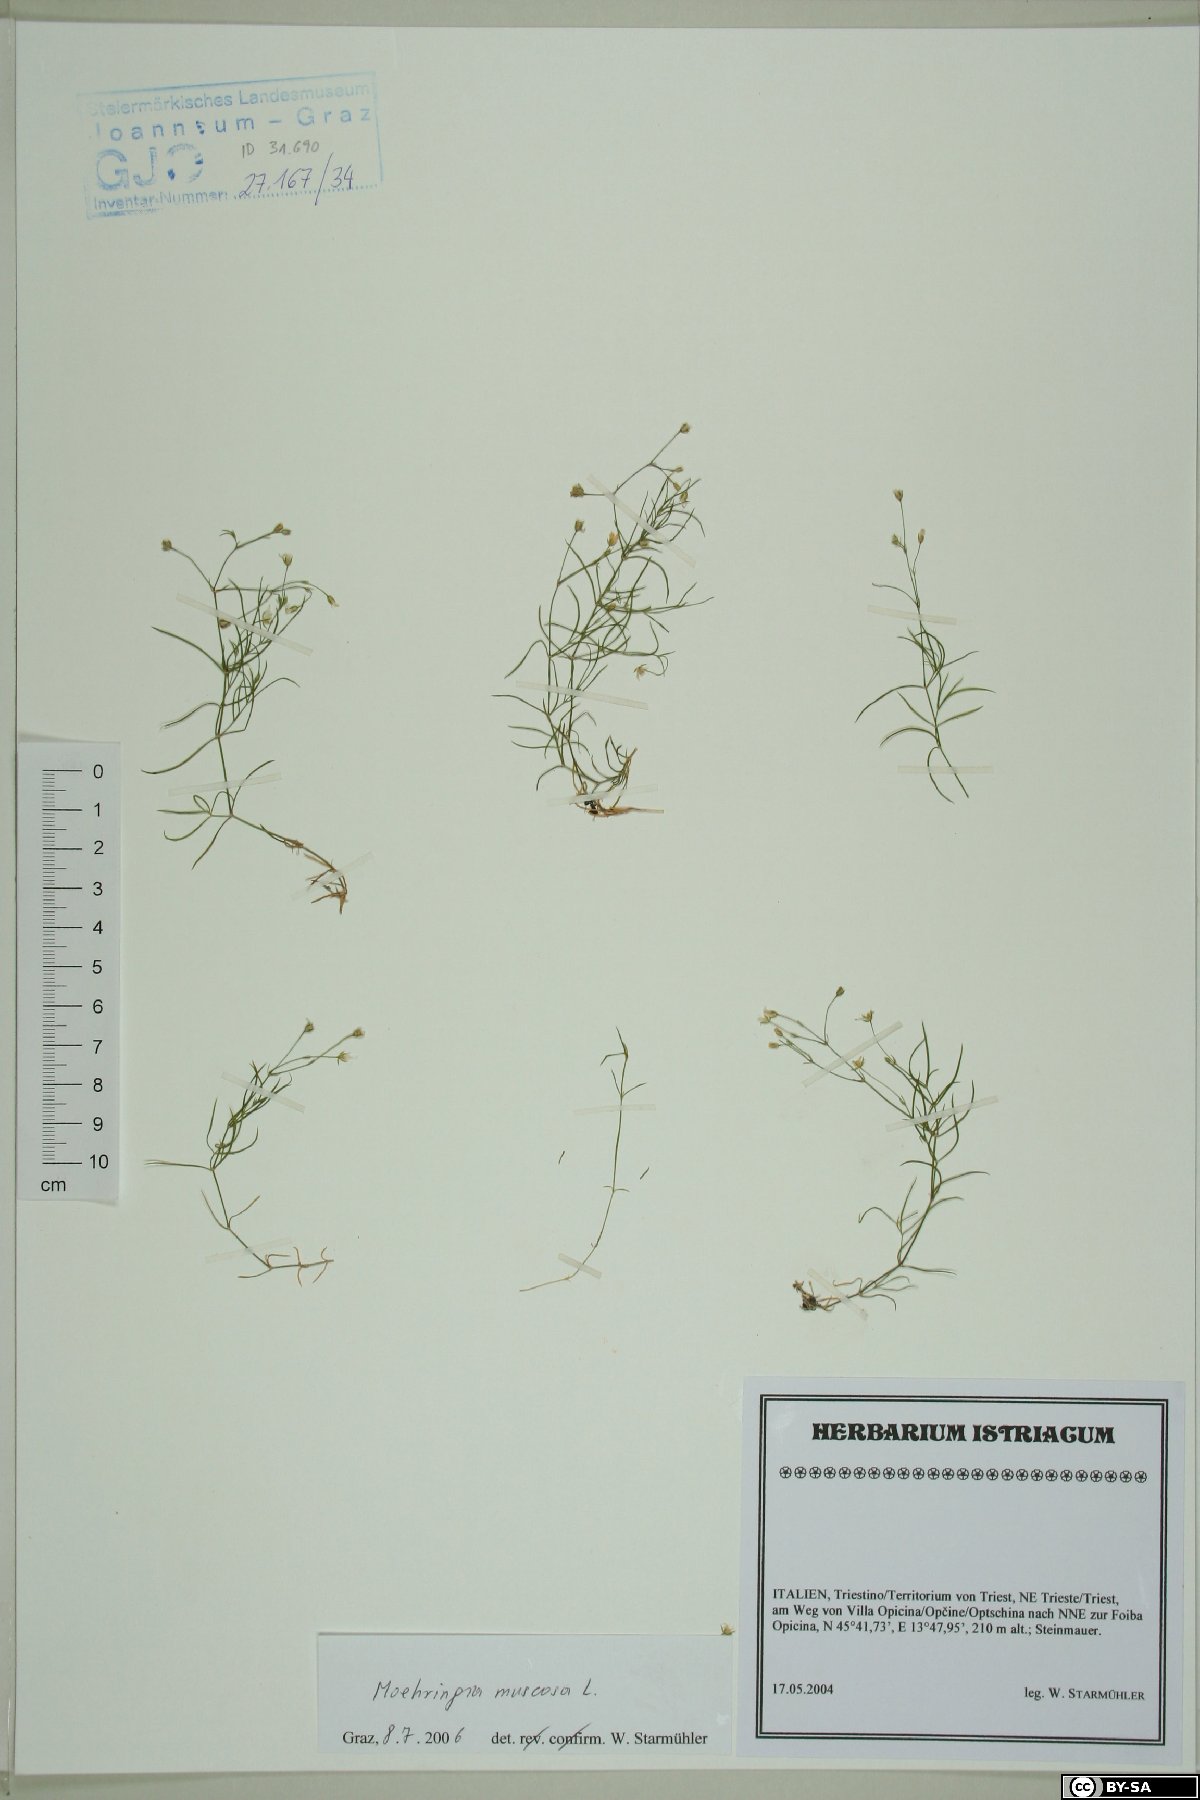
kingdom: Plantae
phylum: Tracheophyta
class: Magnoliopsida
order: Caryophyllales
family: Caryophyllaceae
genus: Moehringia
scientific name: Moehringia muscosa
